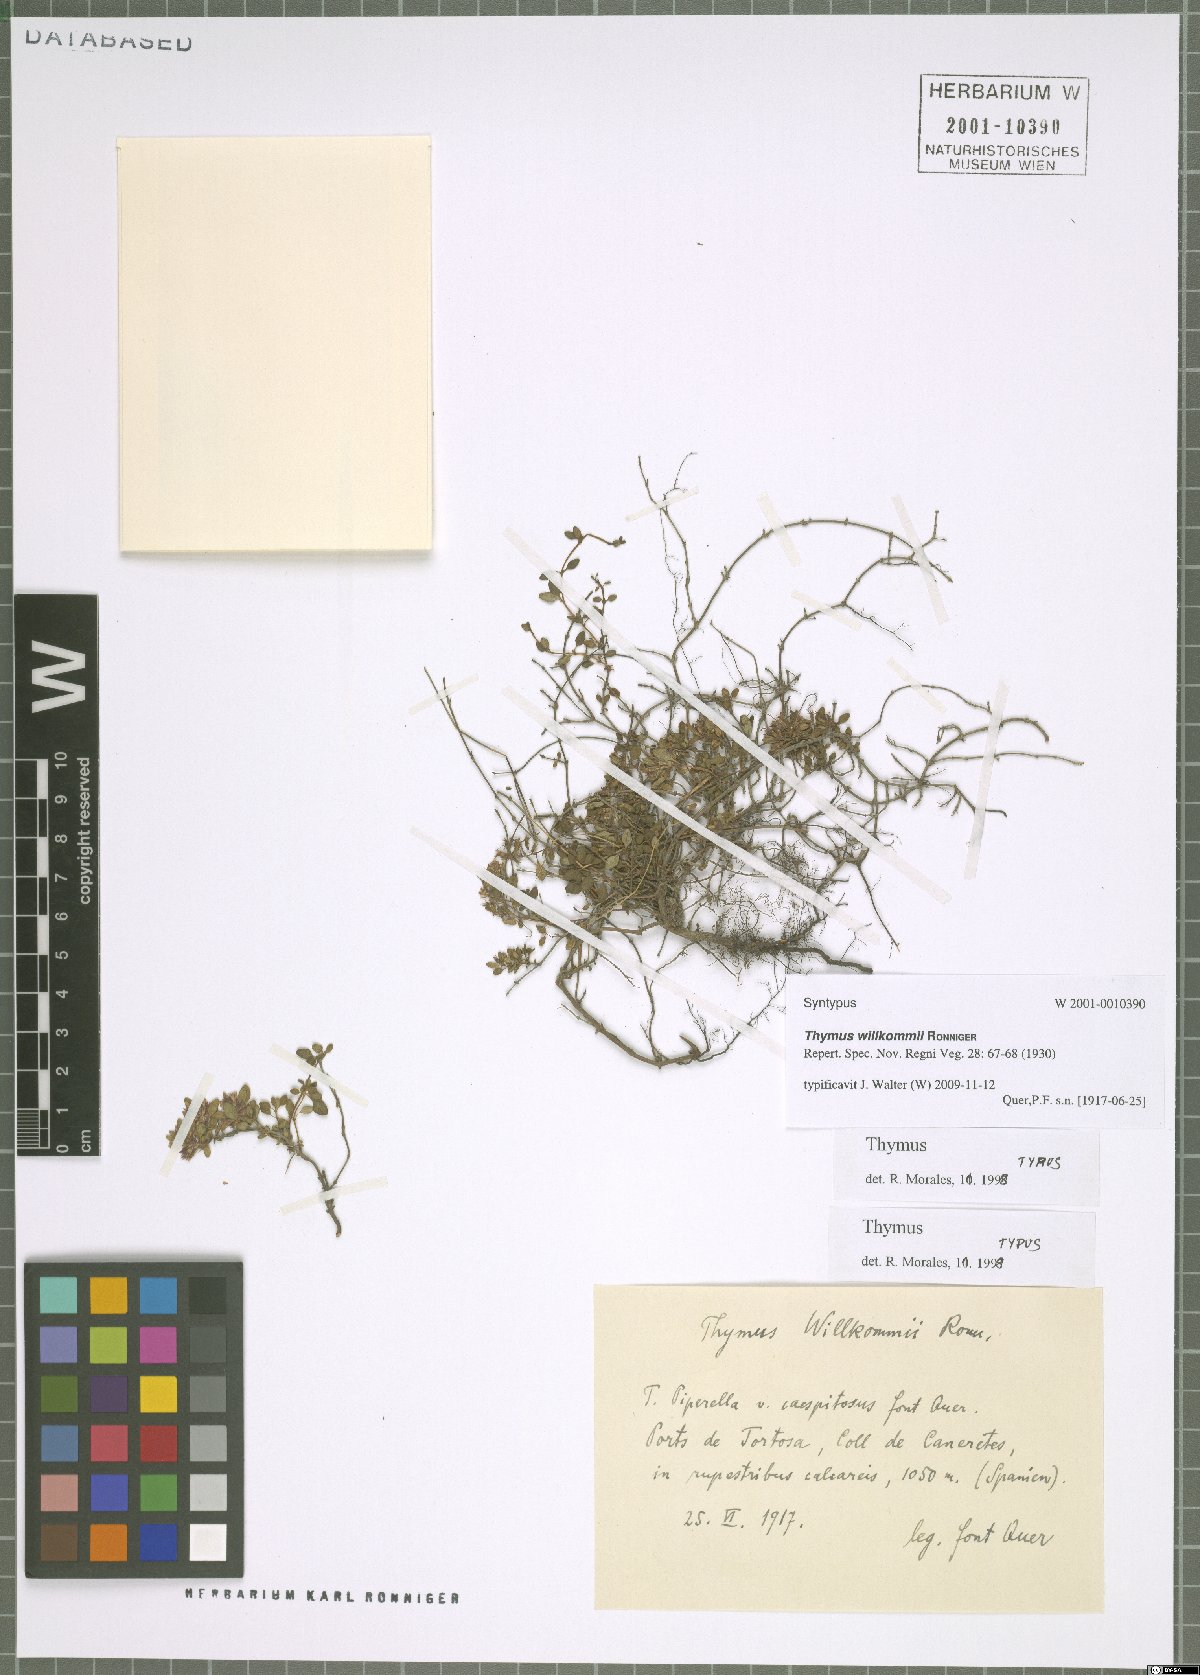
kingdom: Plantae
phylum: Tracheophyta
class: Magnoliopsida
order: Lamiales
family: Lamiaceae
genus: Thymus
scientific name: Thymus willkommii
